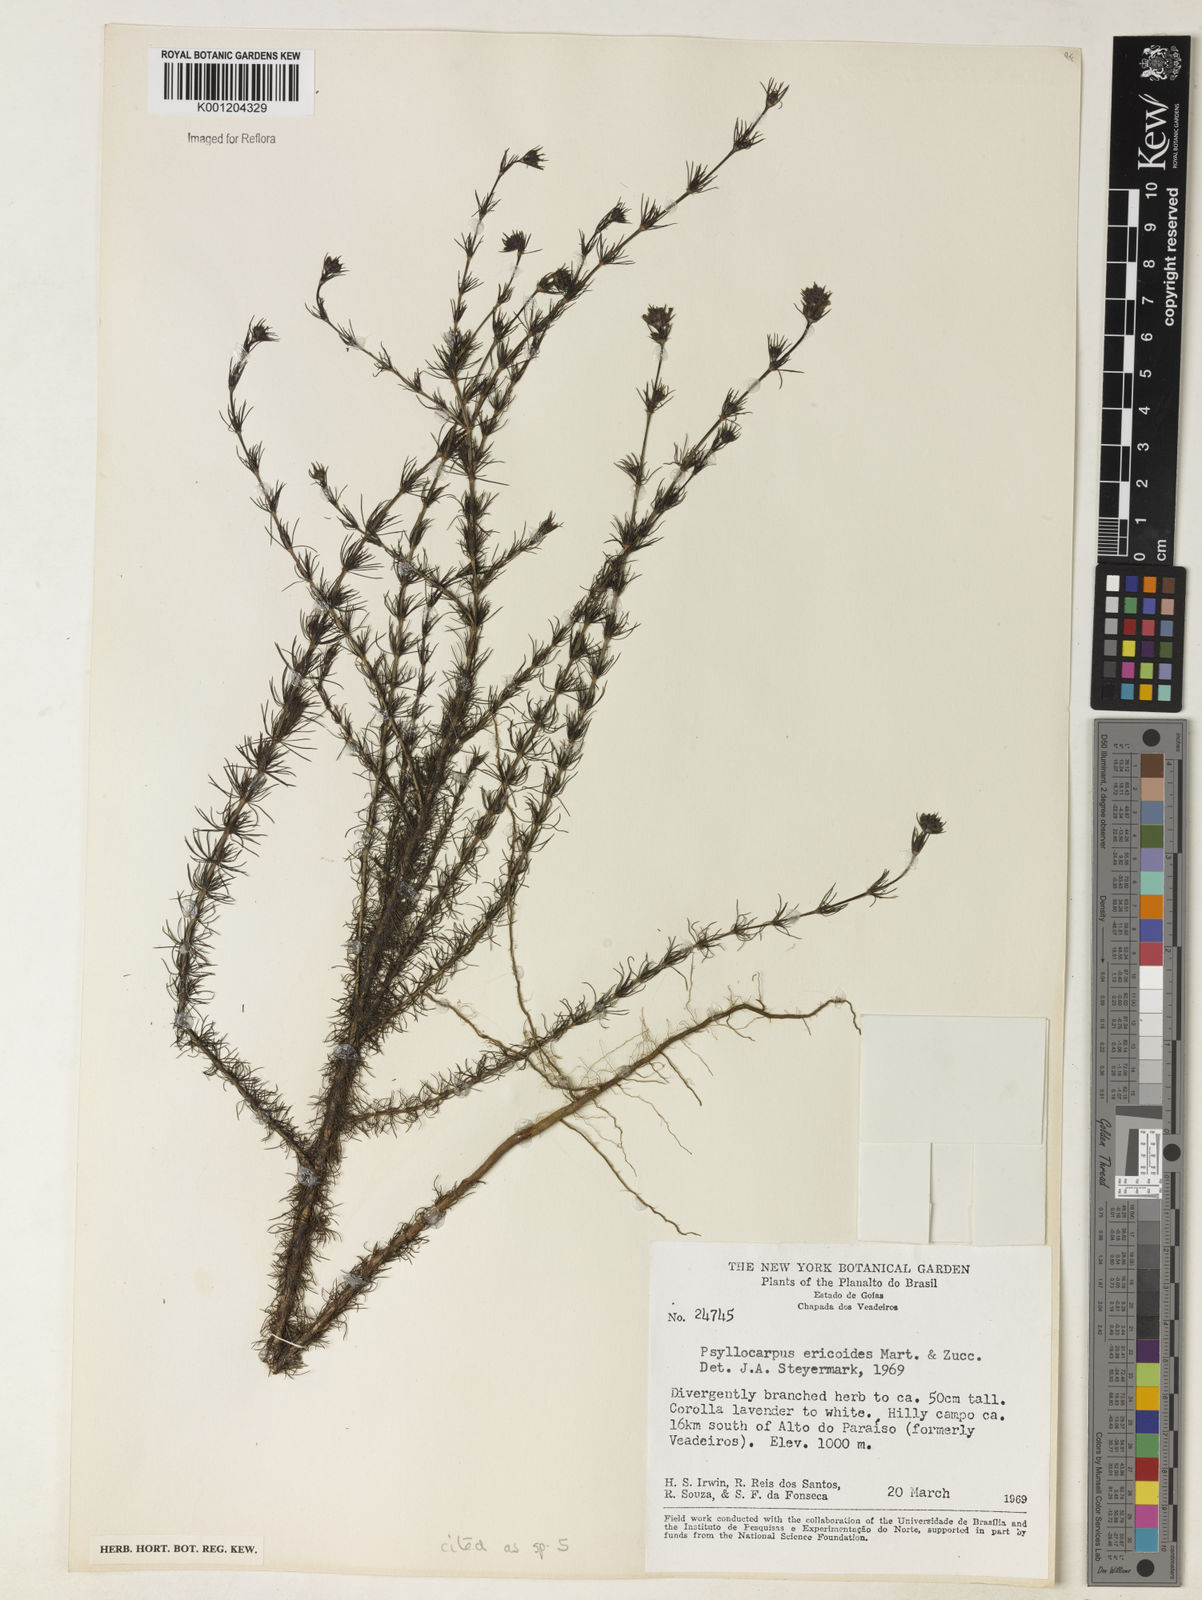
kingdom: Plantae
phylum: Tracheophyta
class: Magnoliopsida
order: Gentianales
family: Rubiaceae
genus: Psyllocarpus
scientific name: Psyllocarpus laricoides
